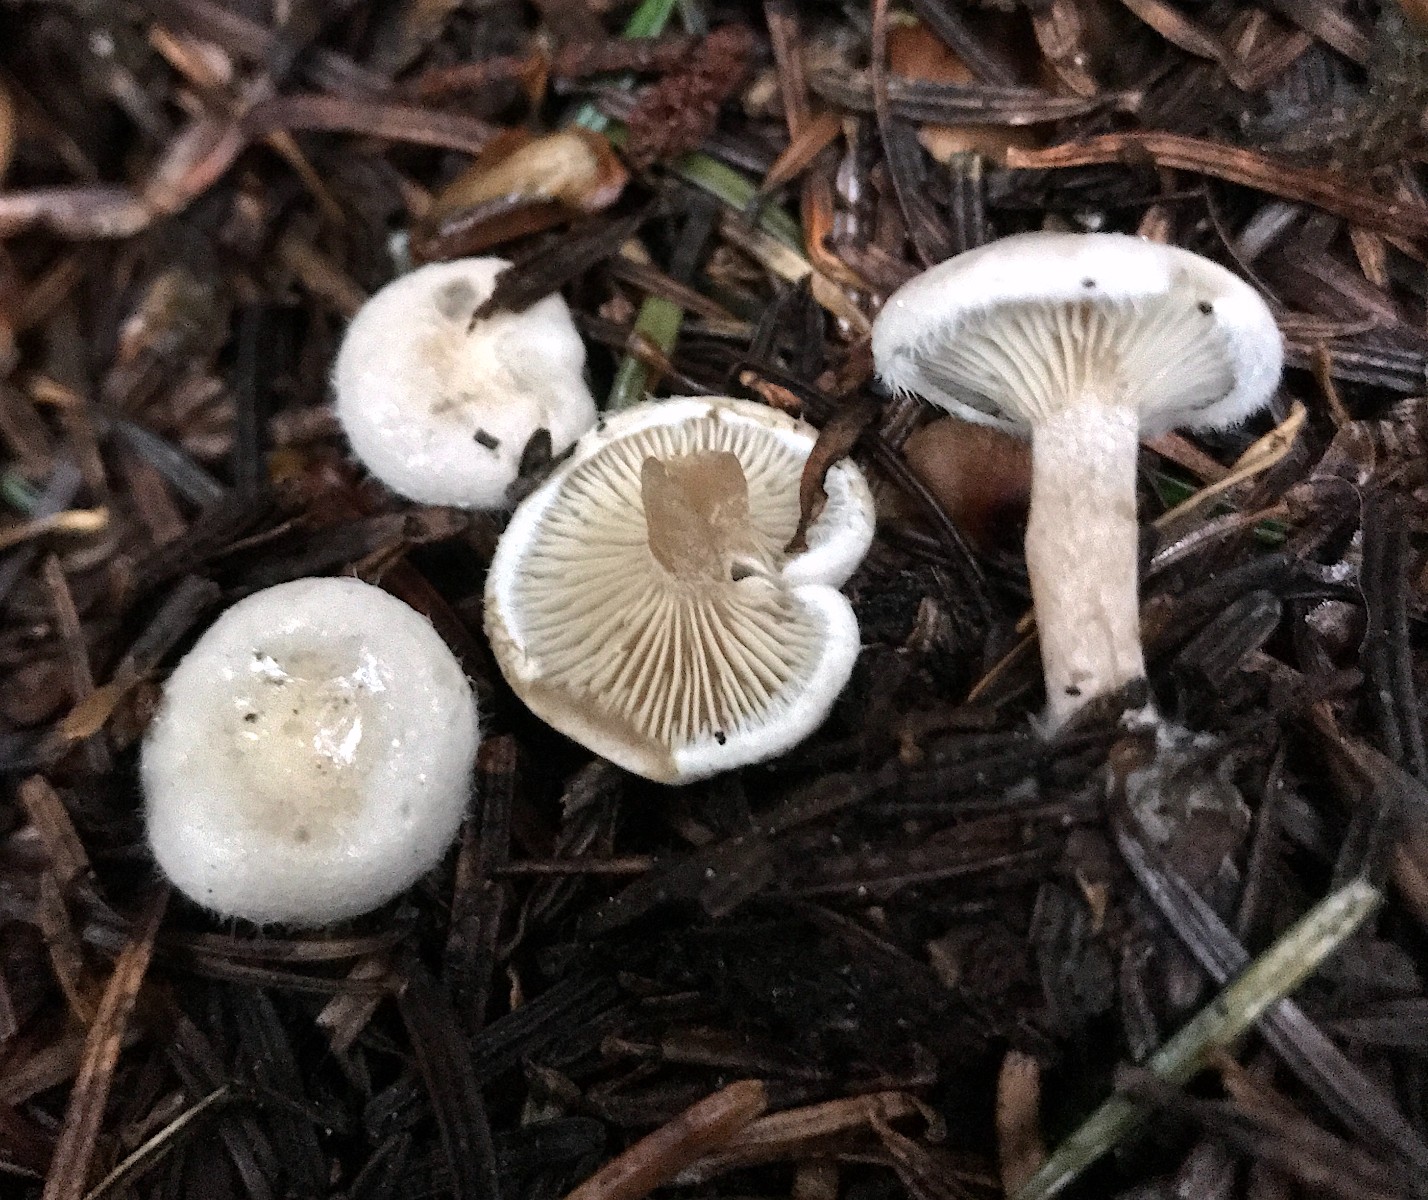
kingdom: Fungi
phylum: Basidiomycota
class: Agaricomycetes
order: Agaricales
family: Tricholomataceae
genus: Ripartites
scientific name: Ripartites tricholoma
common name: almindelig skæghat
